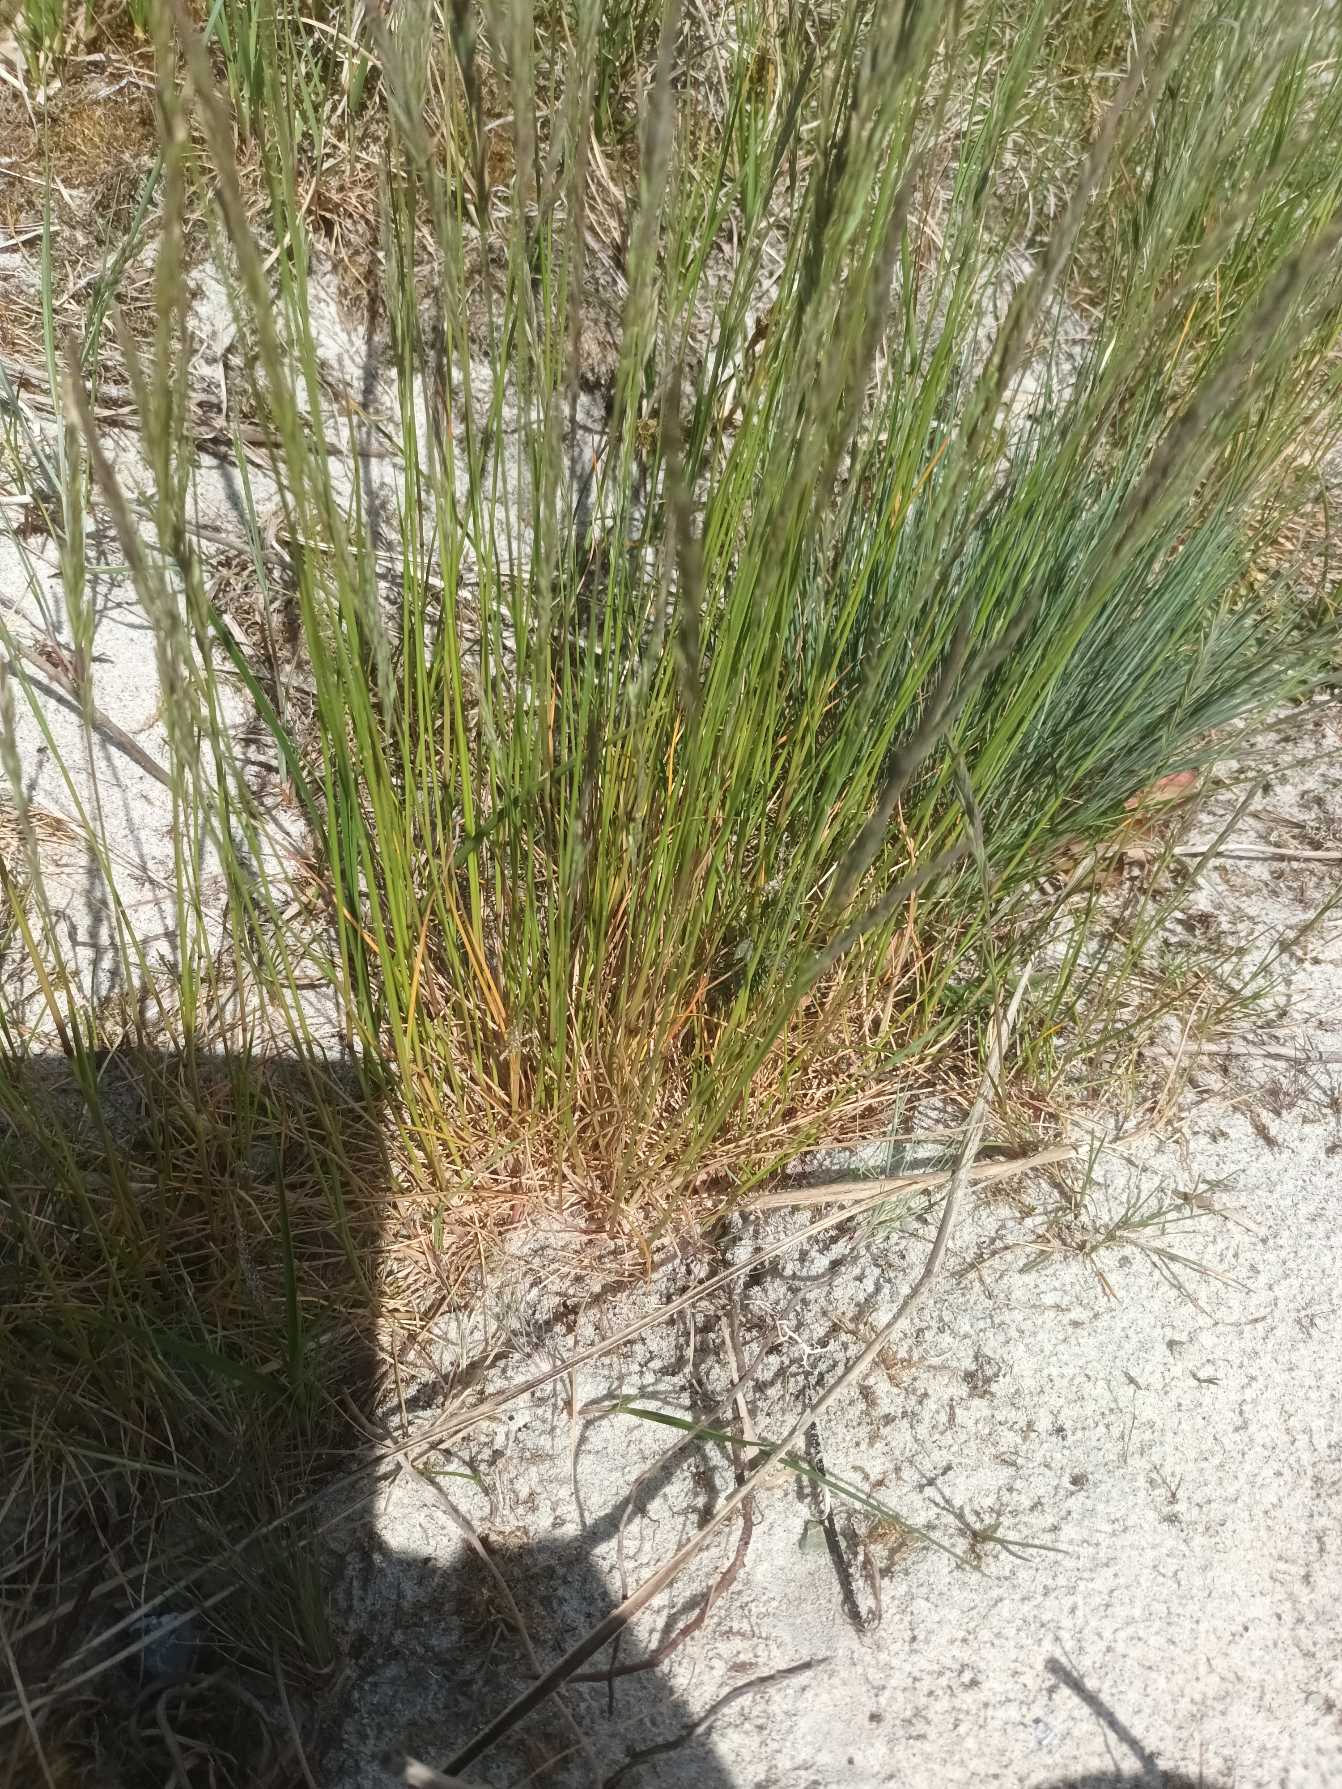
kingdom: Plantae
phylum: Tracheophyta
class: Liliopsida
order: Poales
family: Poaceae
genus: Festuca
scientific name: Festuca rubra
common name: Rød svingel
